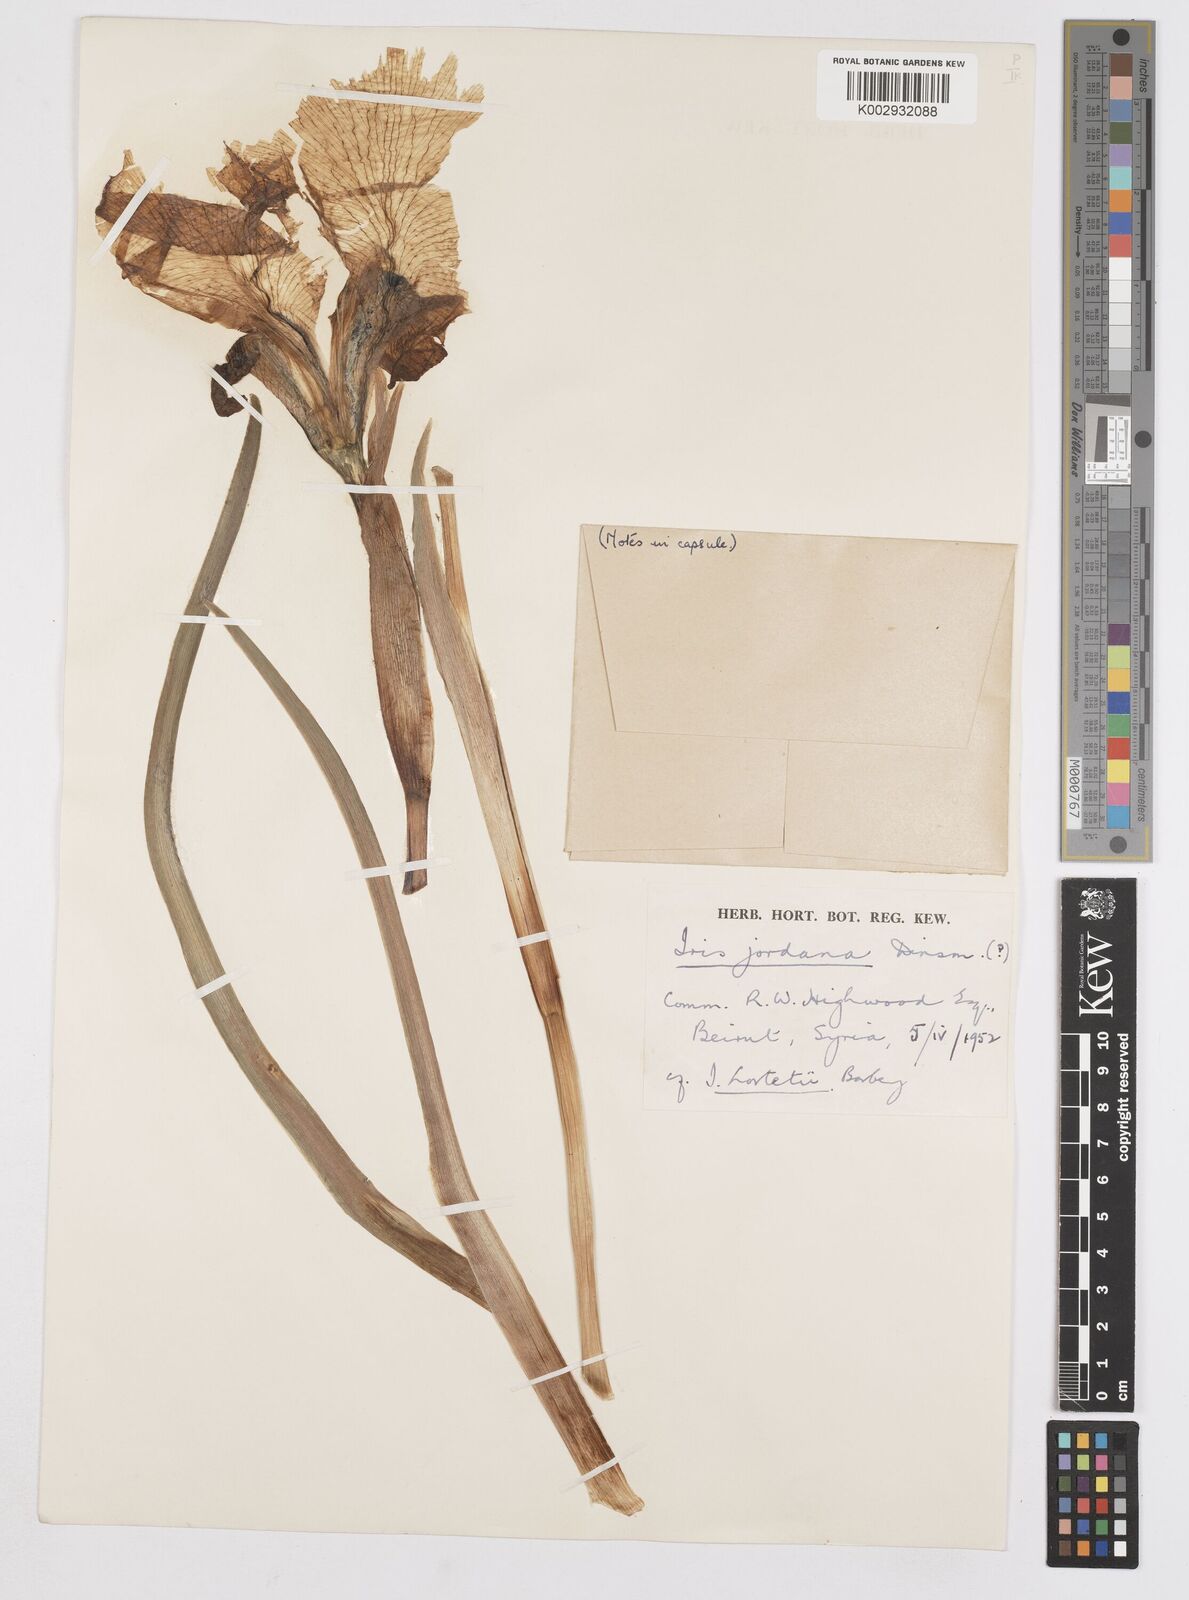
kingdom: Plantae
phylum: Tracheophyta
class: Liliopsida
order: Asparagales
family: Iridaceae
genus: Iris
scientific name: Iris lortetii
